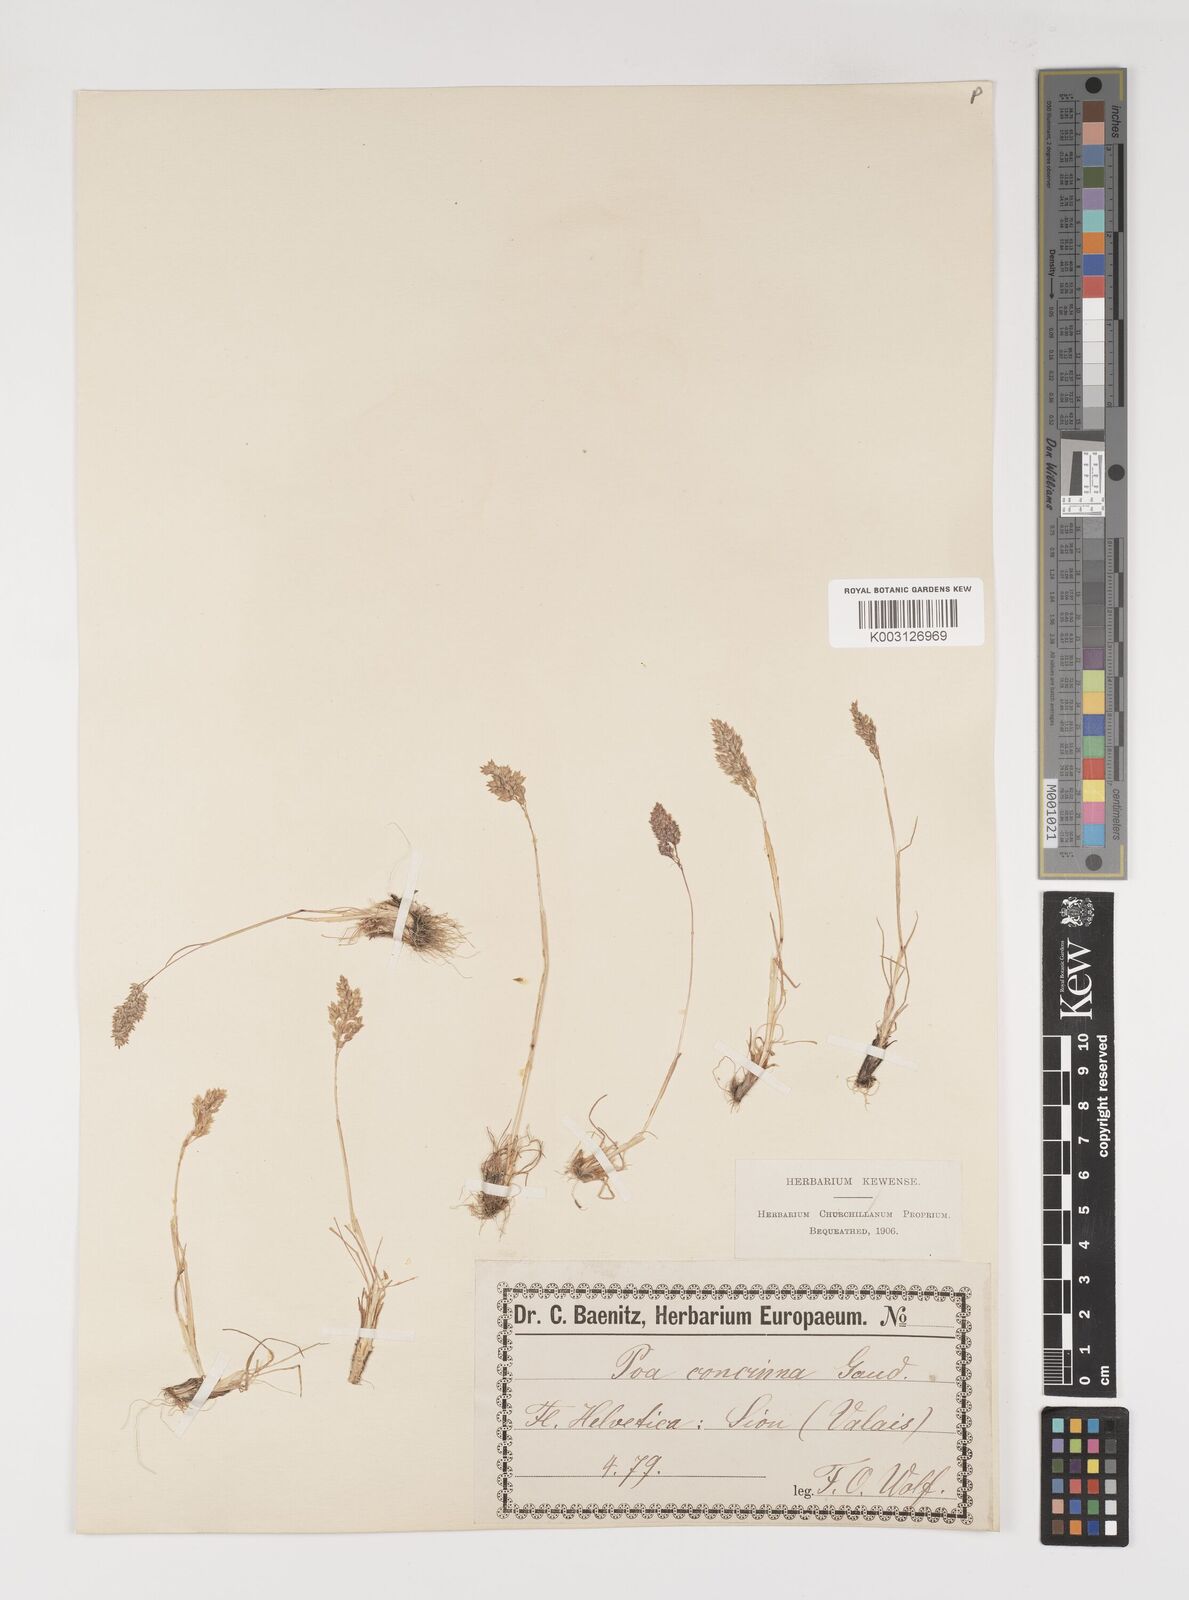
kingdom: Plantae
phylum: Tracheophyta
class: Liliopsida
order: Poales
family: Poaceae
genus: Poa
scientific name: Poa perconcinna
